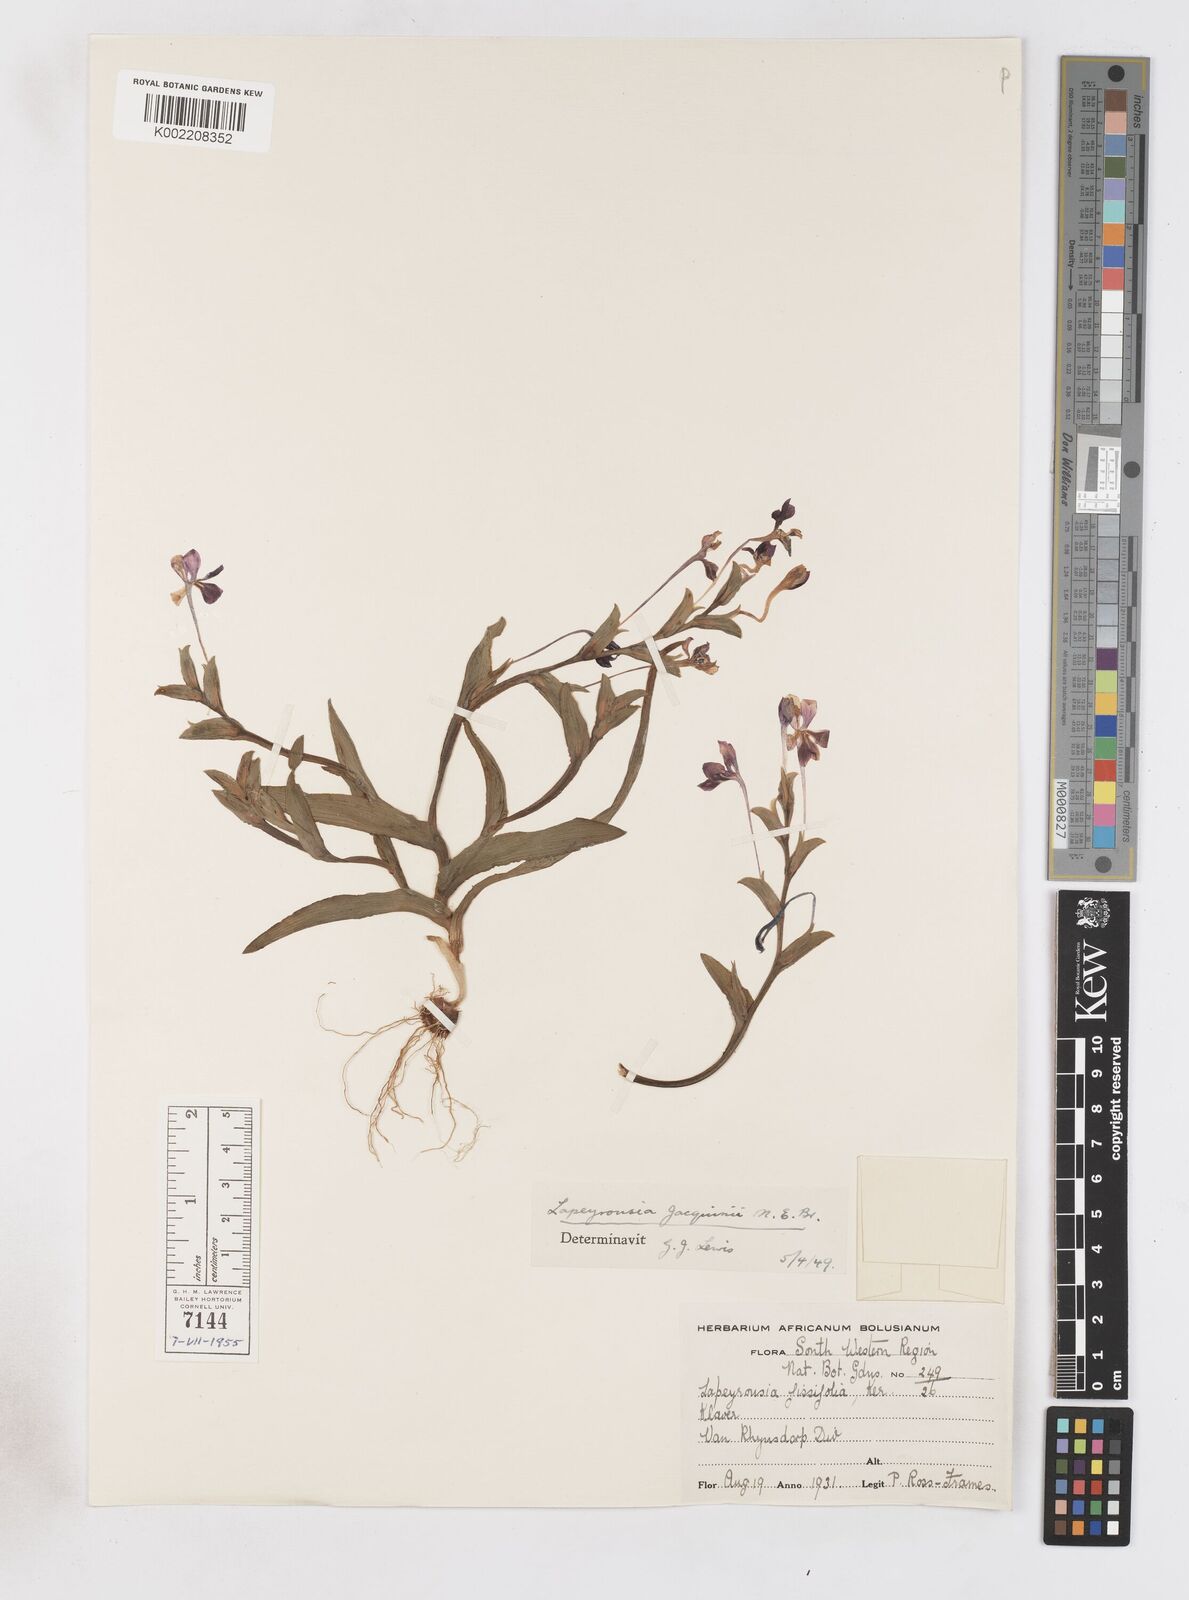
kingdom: Plantae
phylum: Tracheophyta
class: Liliopsida
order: Asparagales
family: Iridaceae
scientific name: Iridaceae
